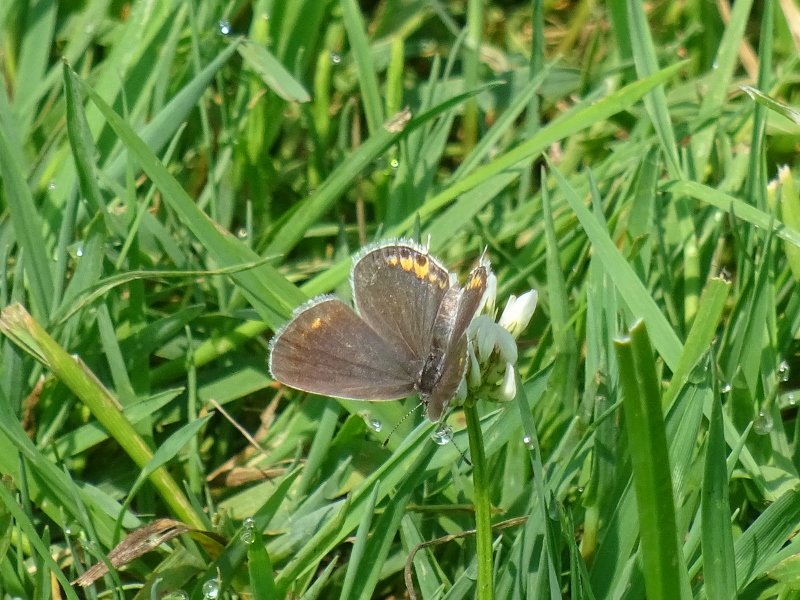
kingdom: Animalia
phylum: Arthropoda
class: Insecta
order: Lepidoptera
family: Lycaenidae
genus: Elkalyce
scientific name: Elkalyce comyntas
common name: Eastern Tailed-Blue
